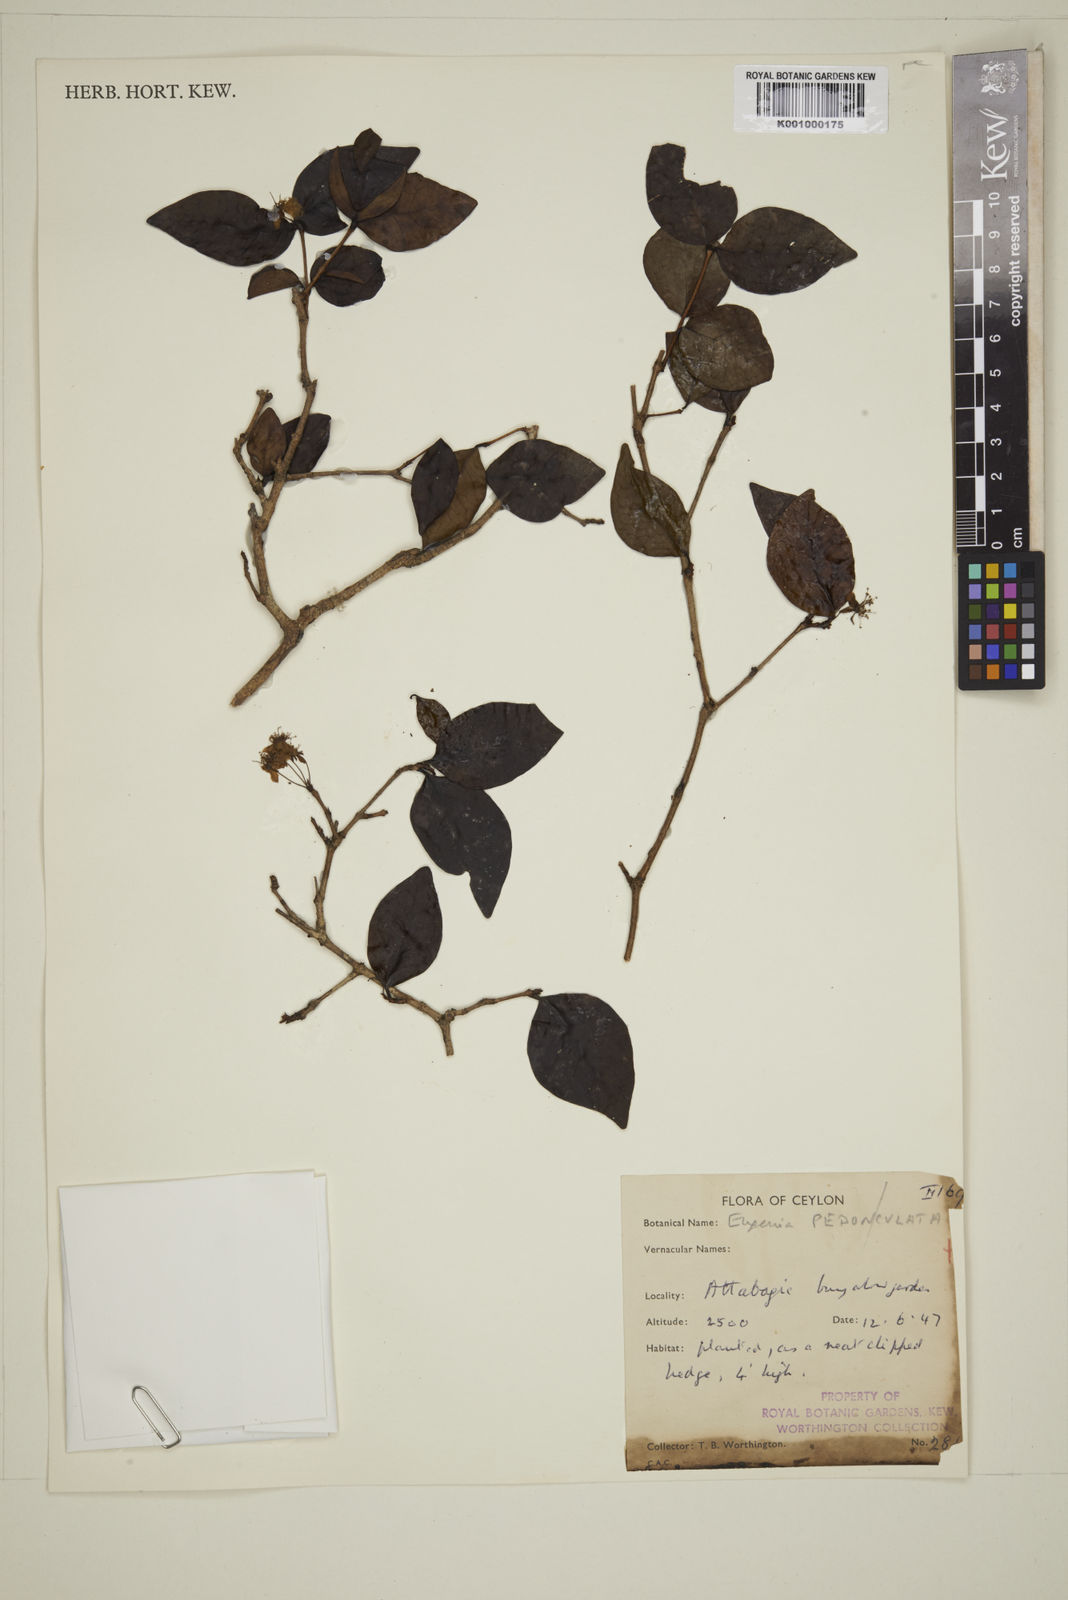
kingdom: Plantae
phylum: Tracheophyta
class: Magnoliopsida
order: Myrtales
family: Myrtaceae
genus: Eugenia
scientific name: Eugenia mabaeoides
